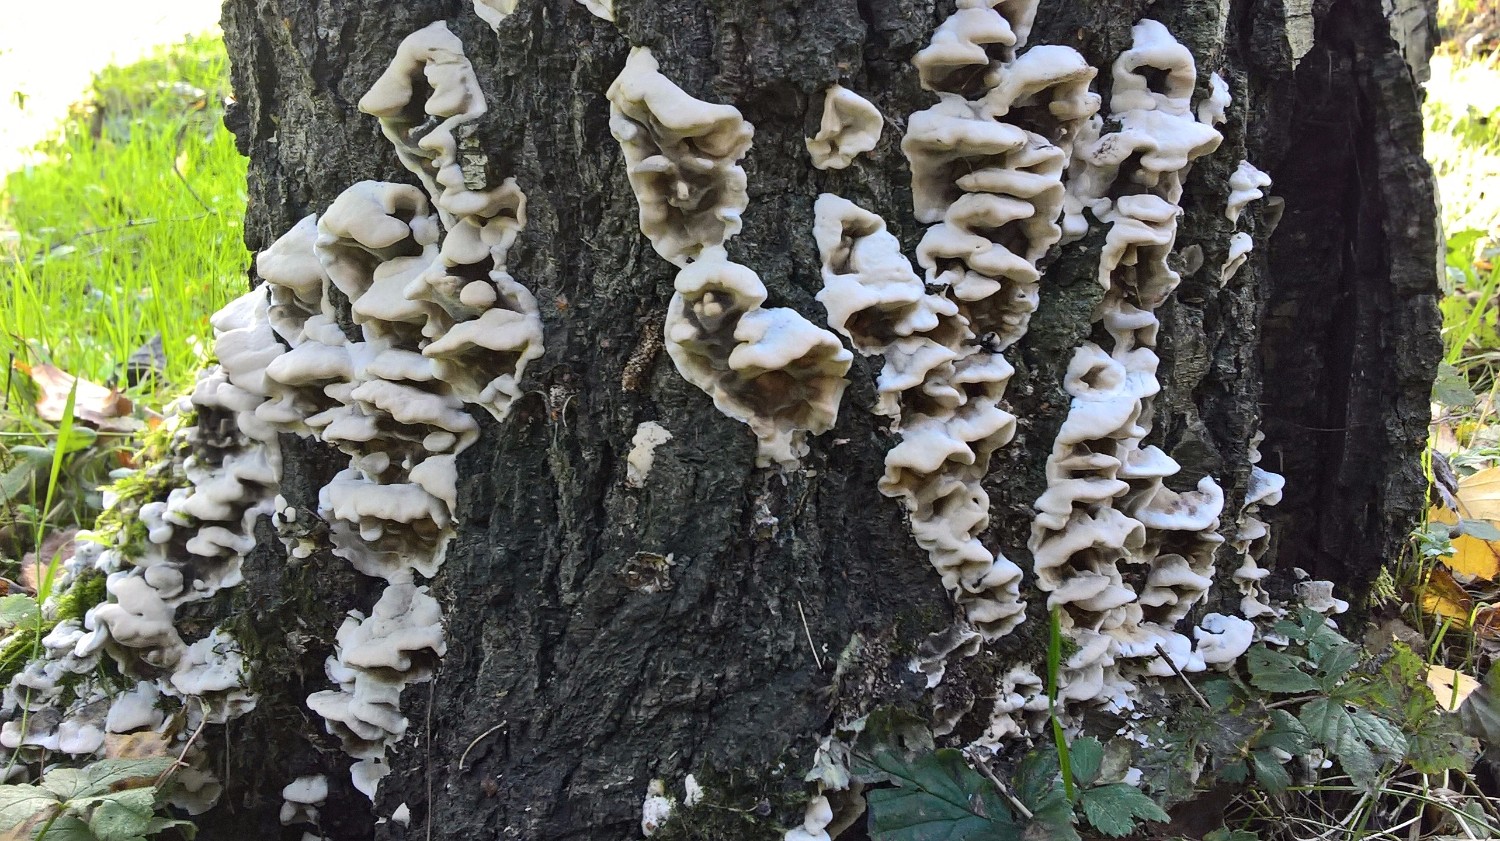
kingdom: Fungi
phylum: Basidiomycota
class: Agaricomycetes
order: Polyporales
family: Phanerochaetaceae
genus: Bjerkandera
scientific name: Bjerkandera adusta
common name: sveden sodporesvamp
